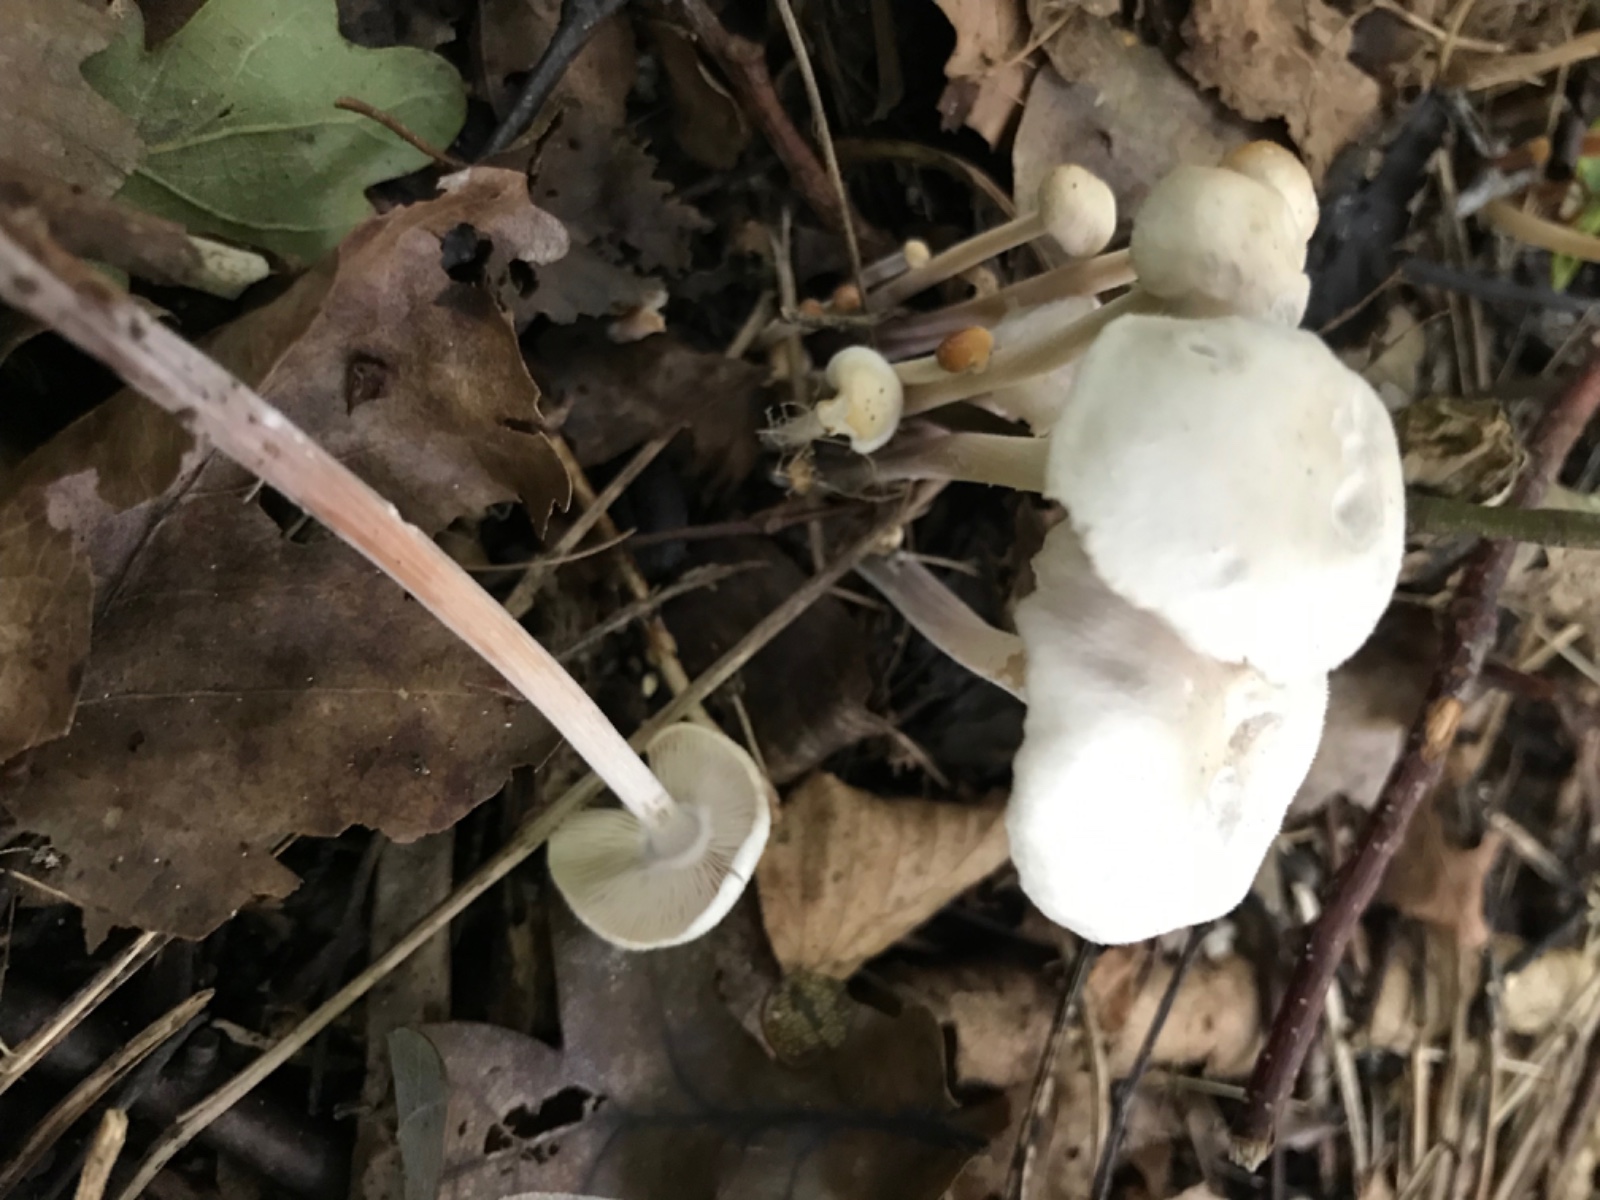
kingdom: Fungi
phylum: Basidiomycota
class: Agaricomycetes
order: Agaricales
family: Marasmiaceae
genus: Marasmius
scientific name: Marasmius wynneae
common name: hvælvet bruskhat
